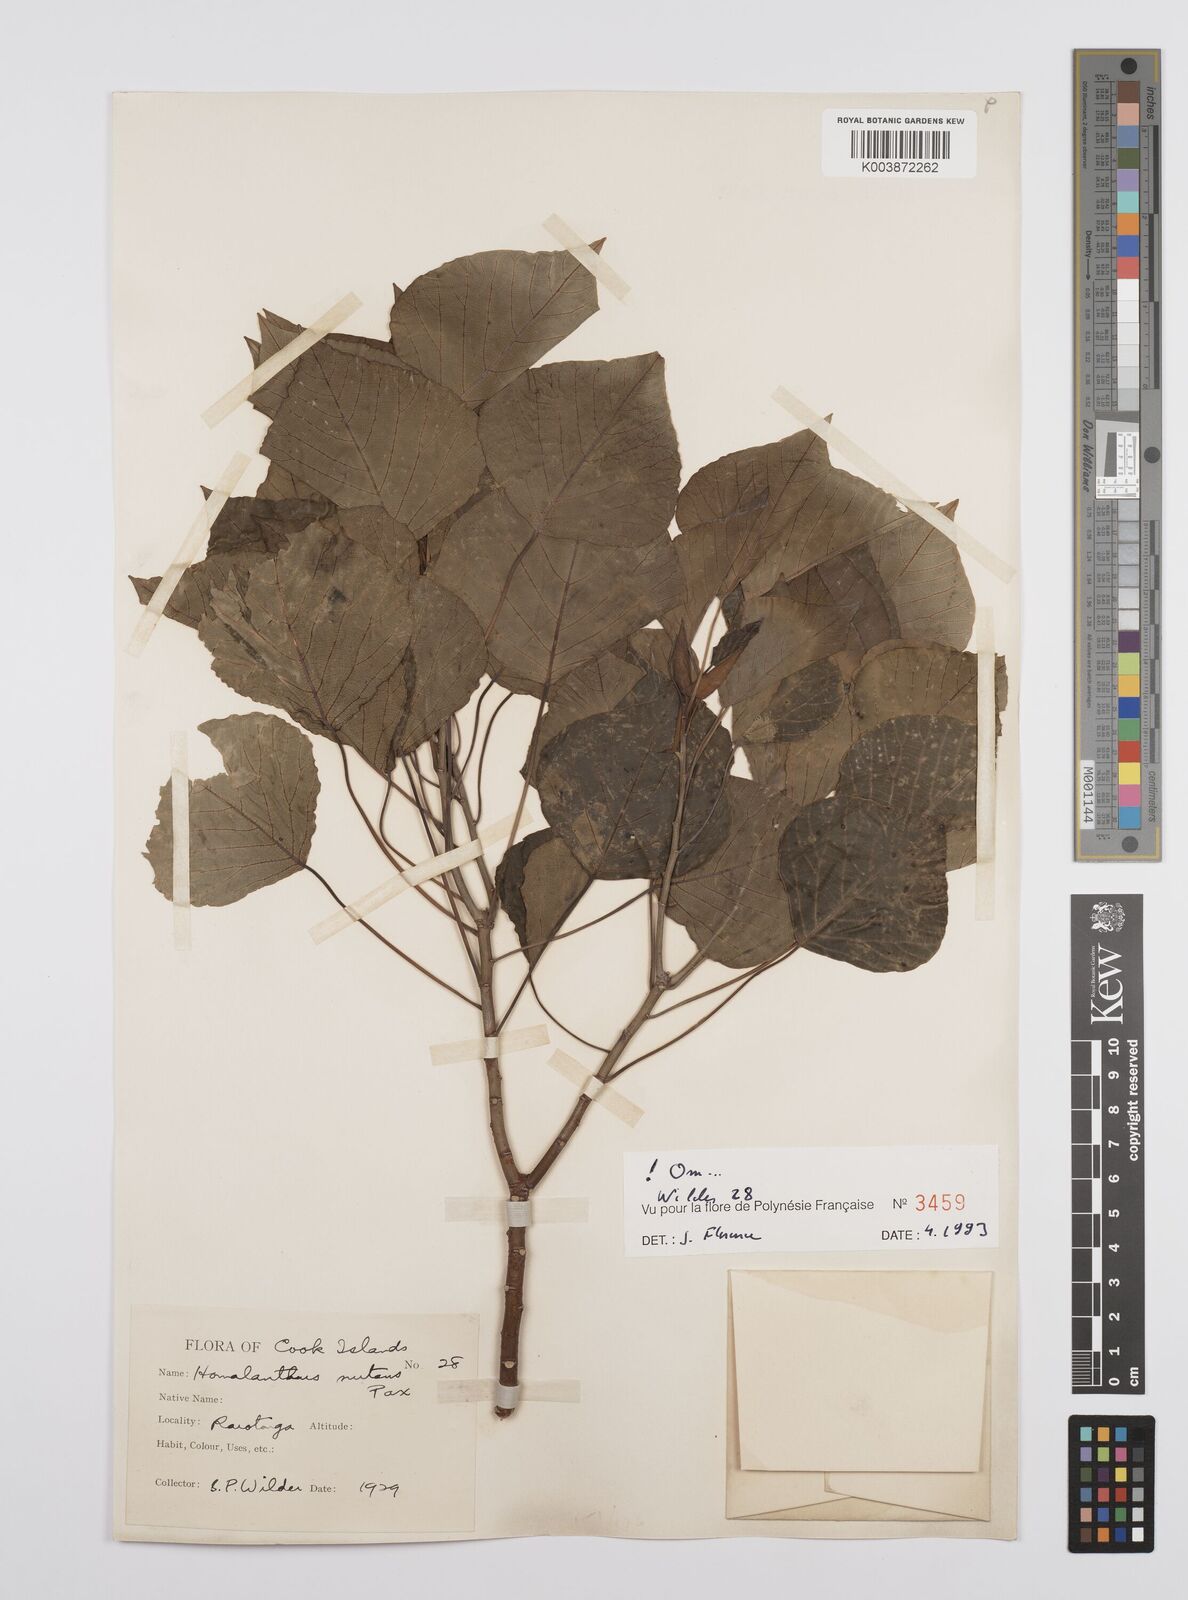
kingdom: Plantae
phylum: Tracheophyta
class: Magnoliopsida
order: Malpighiales
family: Euphorbiaceae
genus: Homalanthus
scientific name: Homalanthus nutans
